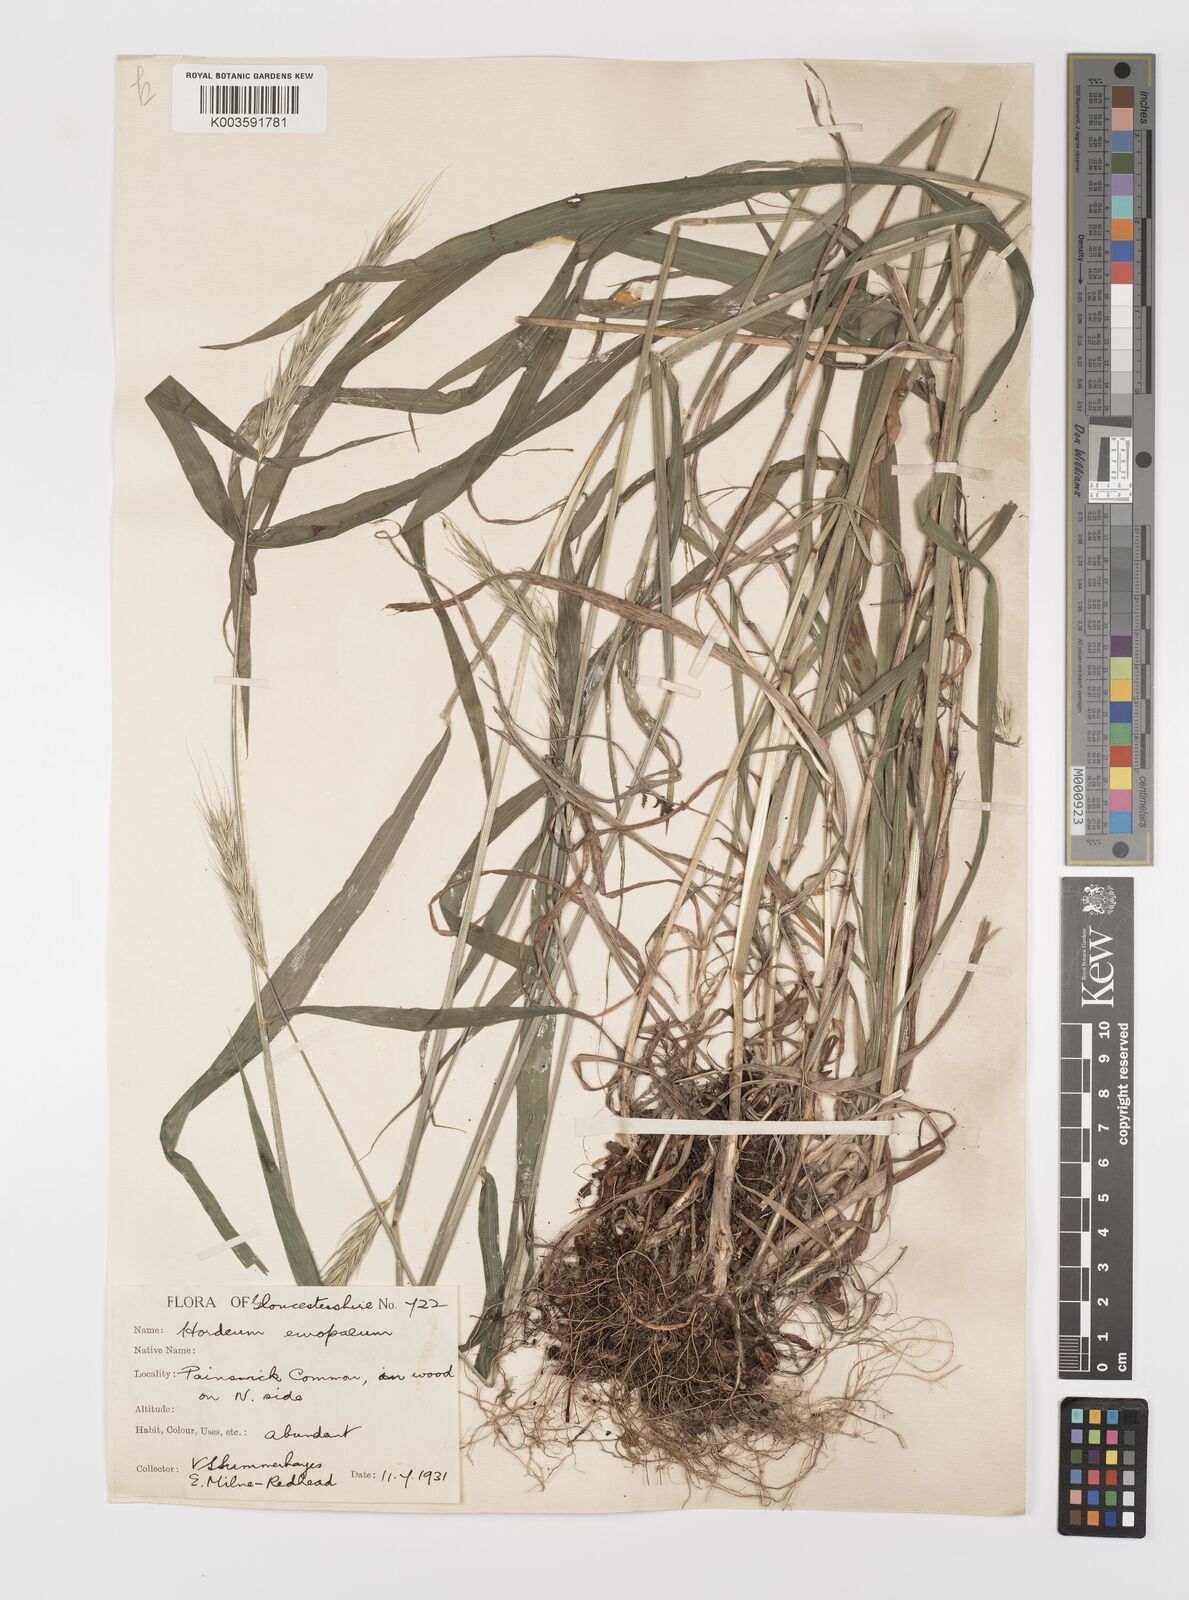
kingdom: Plantae
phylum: Tracheophyta
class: Liliopsida
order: Poales
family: Poaceae
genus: Hordelymus
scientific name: Hordelymus europaeus
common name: Wood-barley
